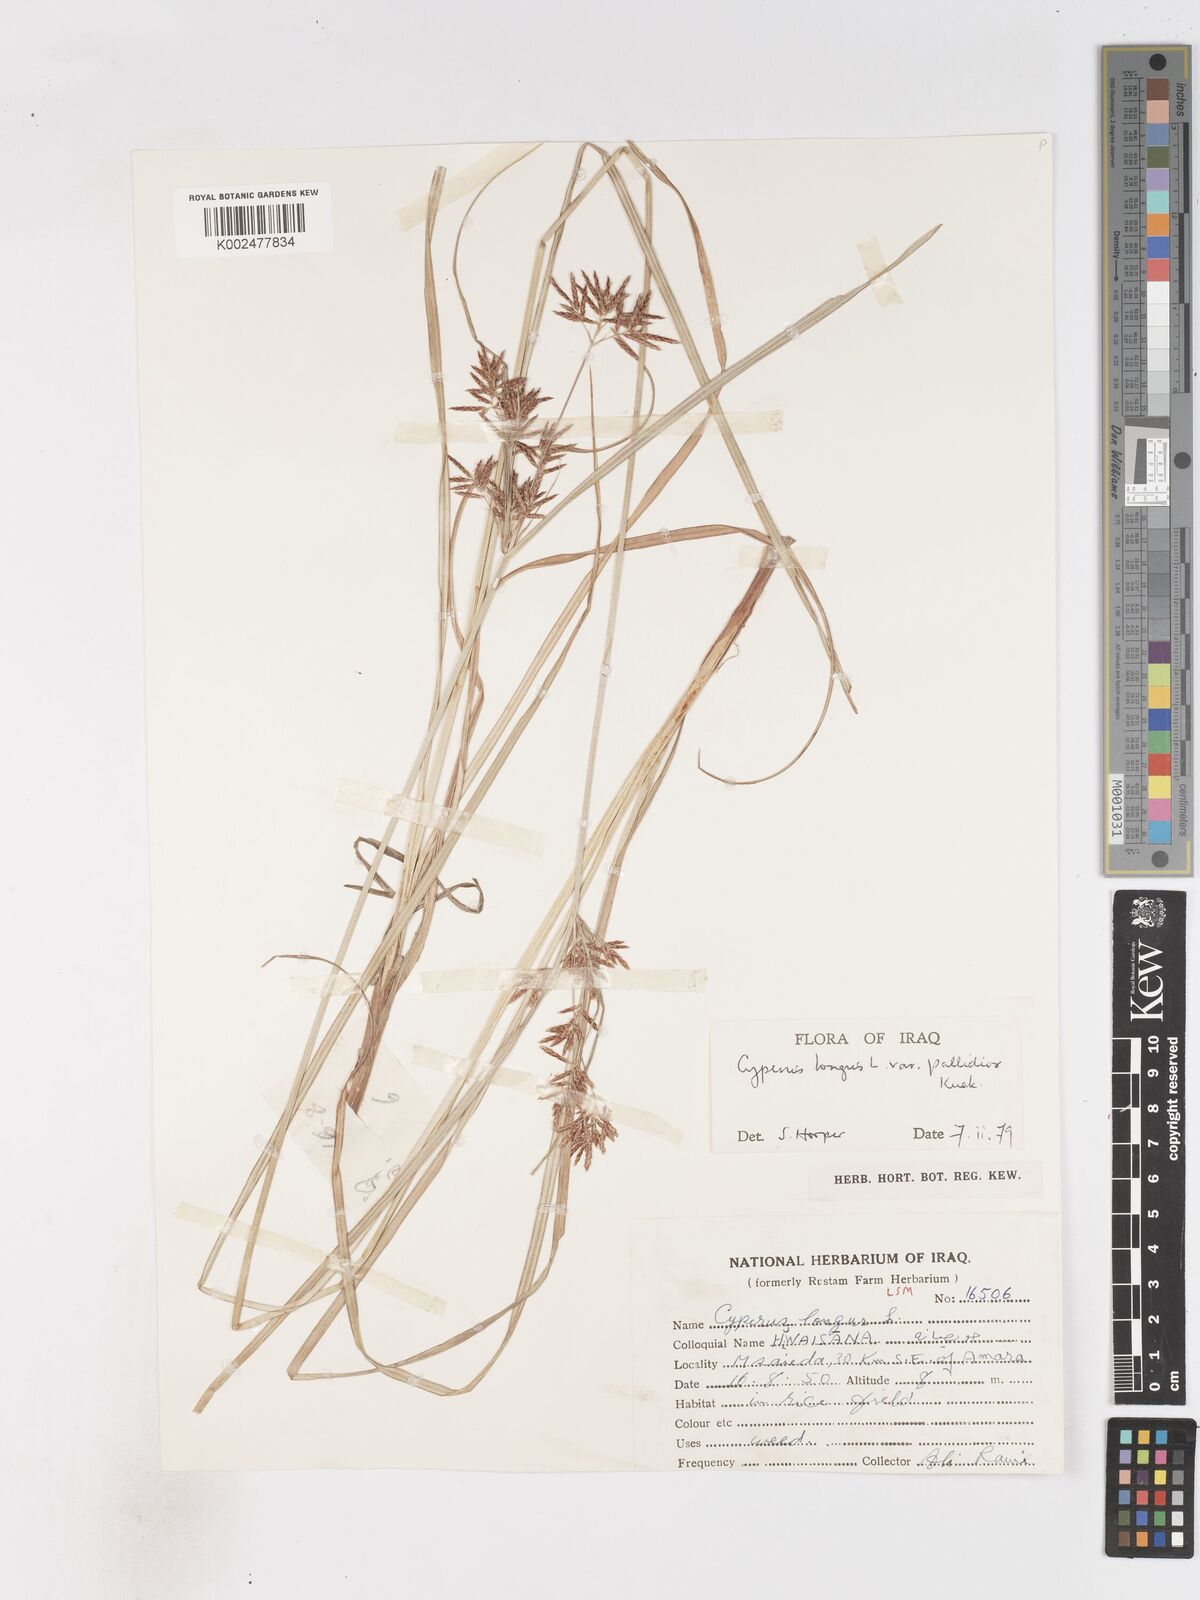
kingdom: Plantae
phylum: Tracheophyta
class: Liliopsida
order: Poales
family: Cyperaceae
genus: Cyperus
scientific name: Cyperus longus
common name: Galingale
